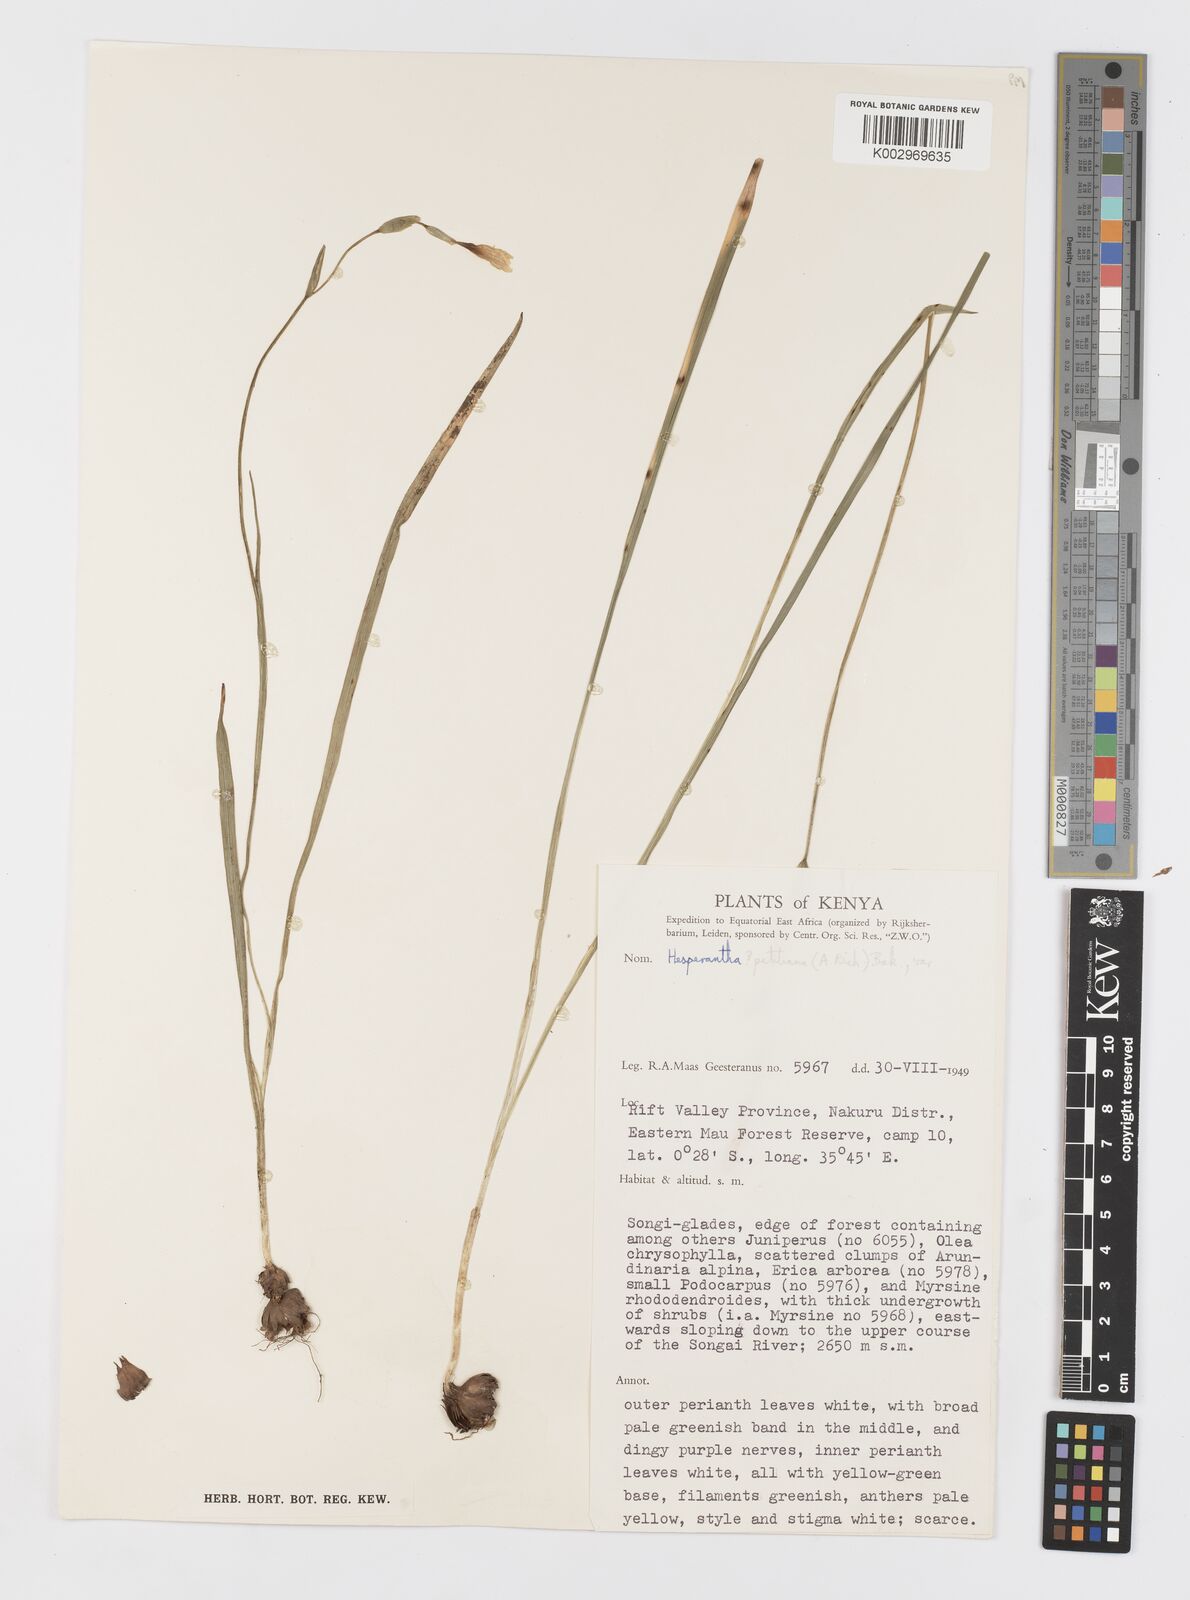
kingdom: Plantae
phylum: Tracheophyta
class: Liliopsida
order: Asparagales
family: Iridaceae
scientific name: Iridaceae
